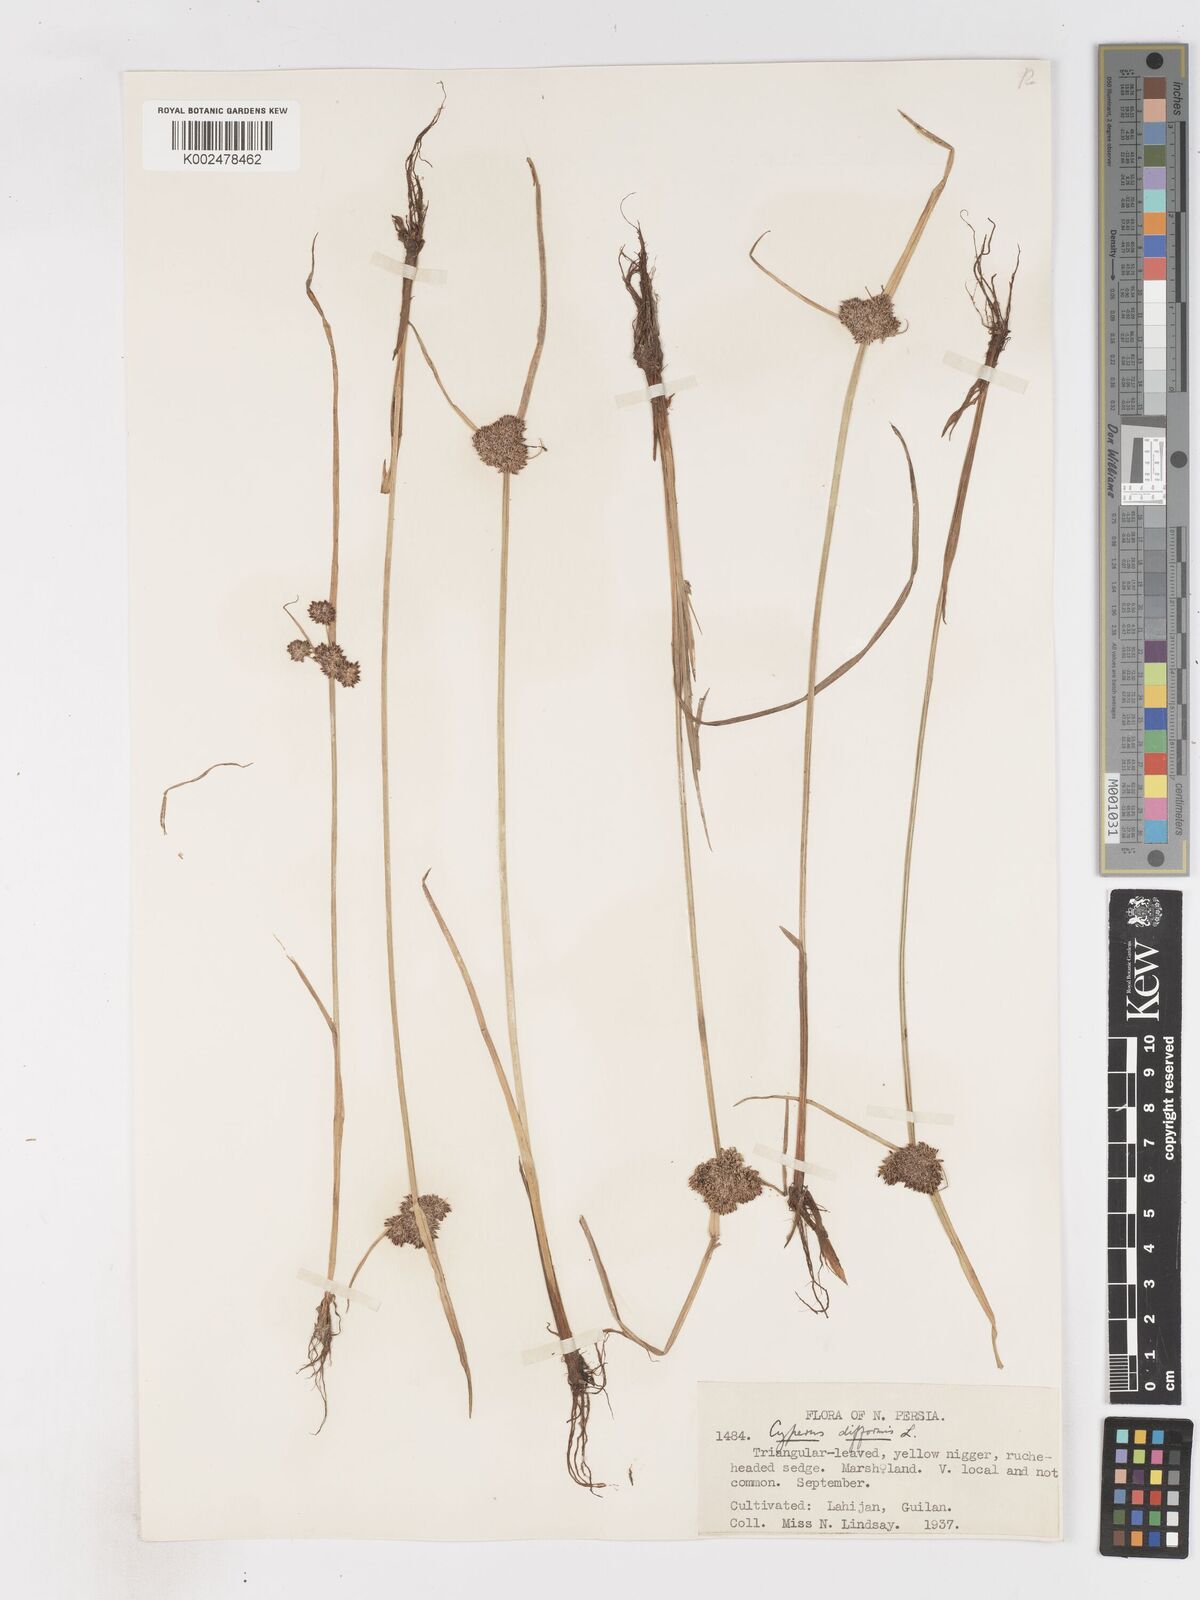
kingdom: Plantae
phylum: Tracheophyta
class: Liliopsida
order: Poales
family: Cyperaceae
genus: Cyperus
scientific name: Cyperus difformis
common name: Variable flatsedge
